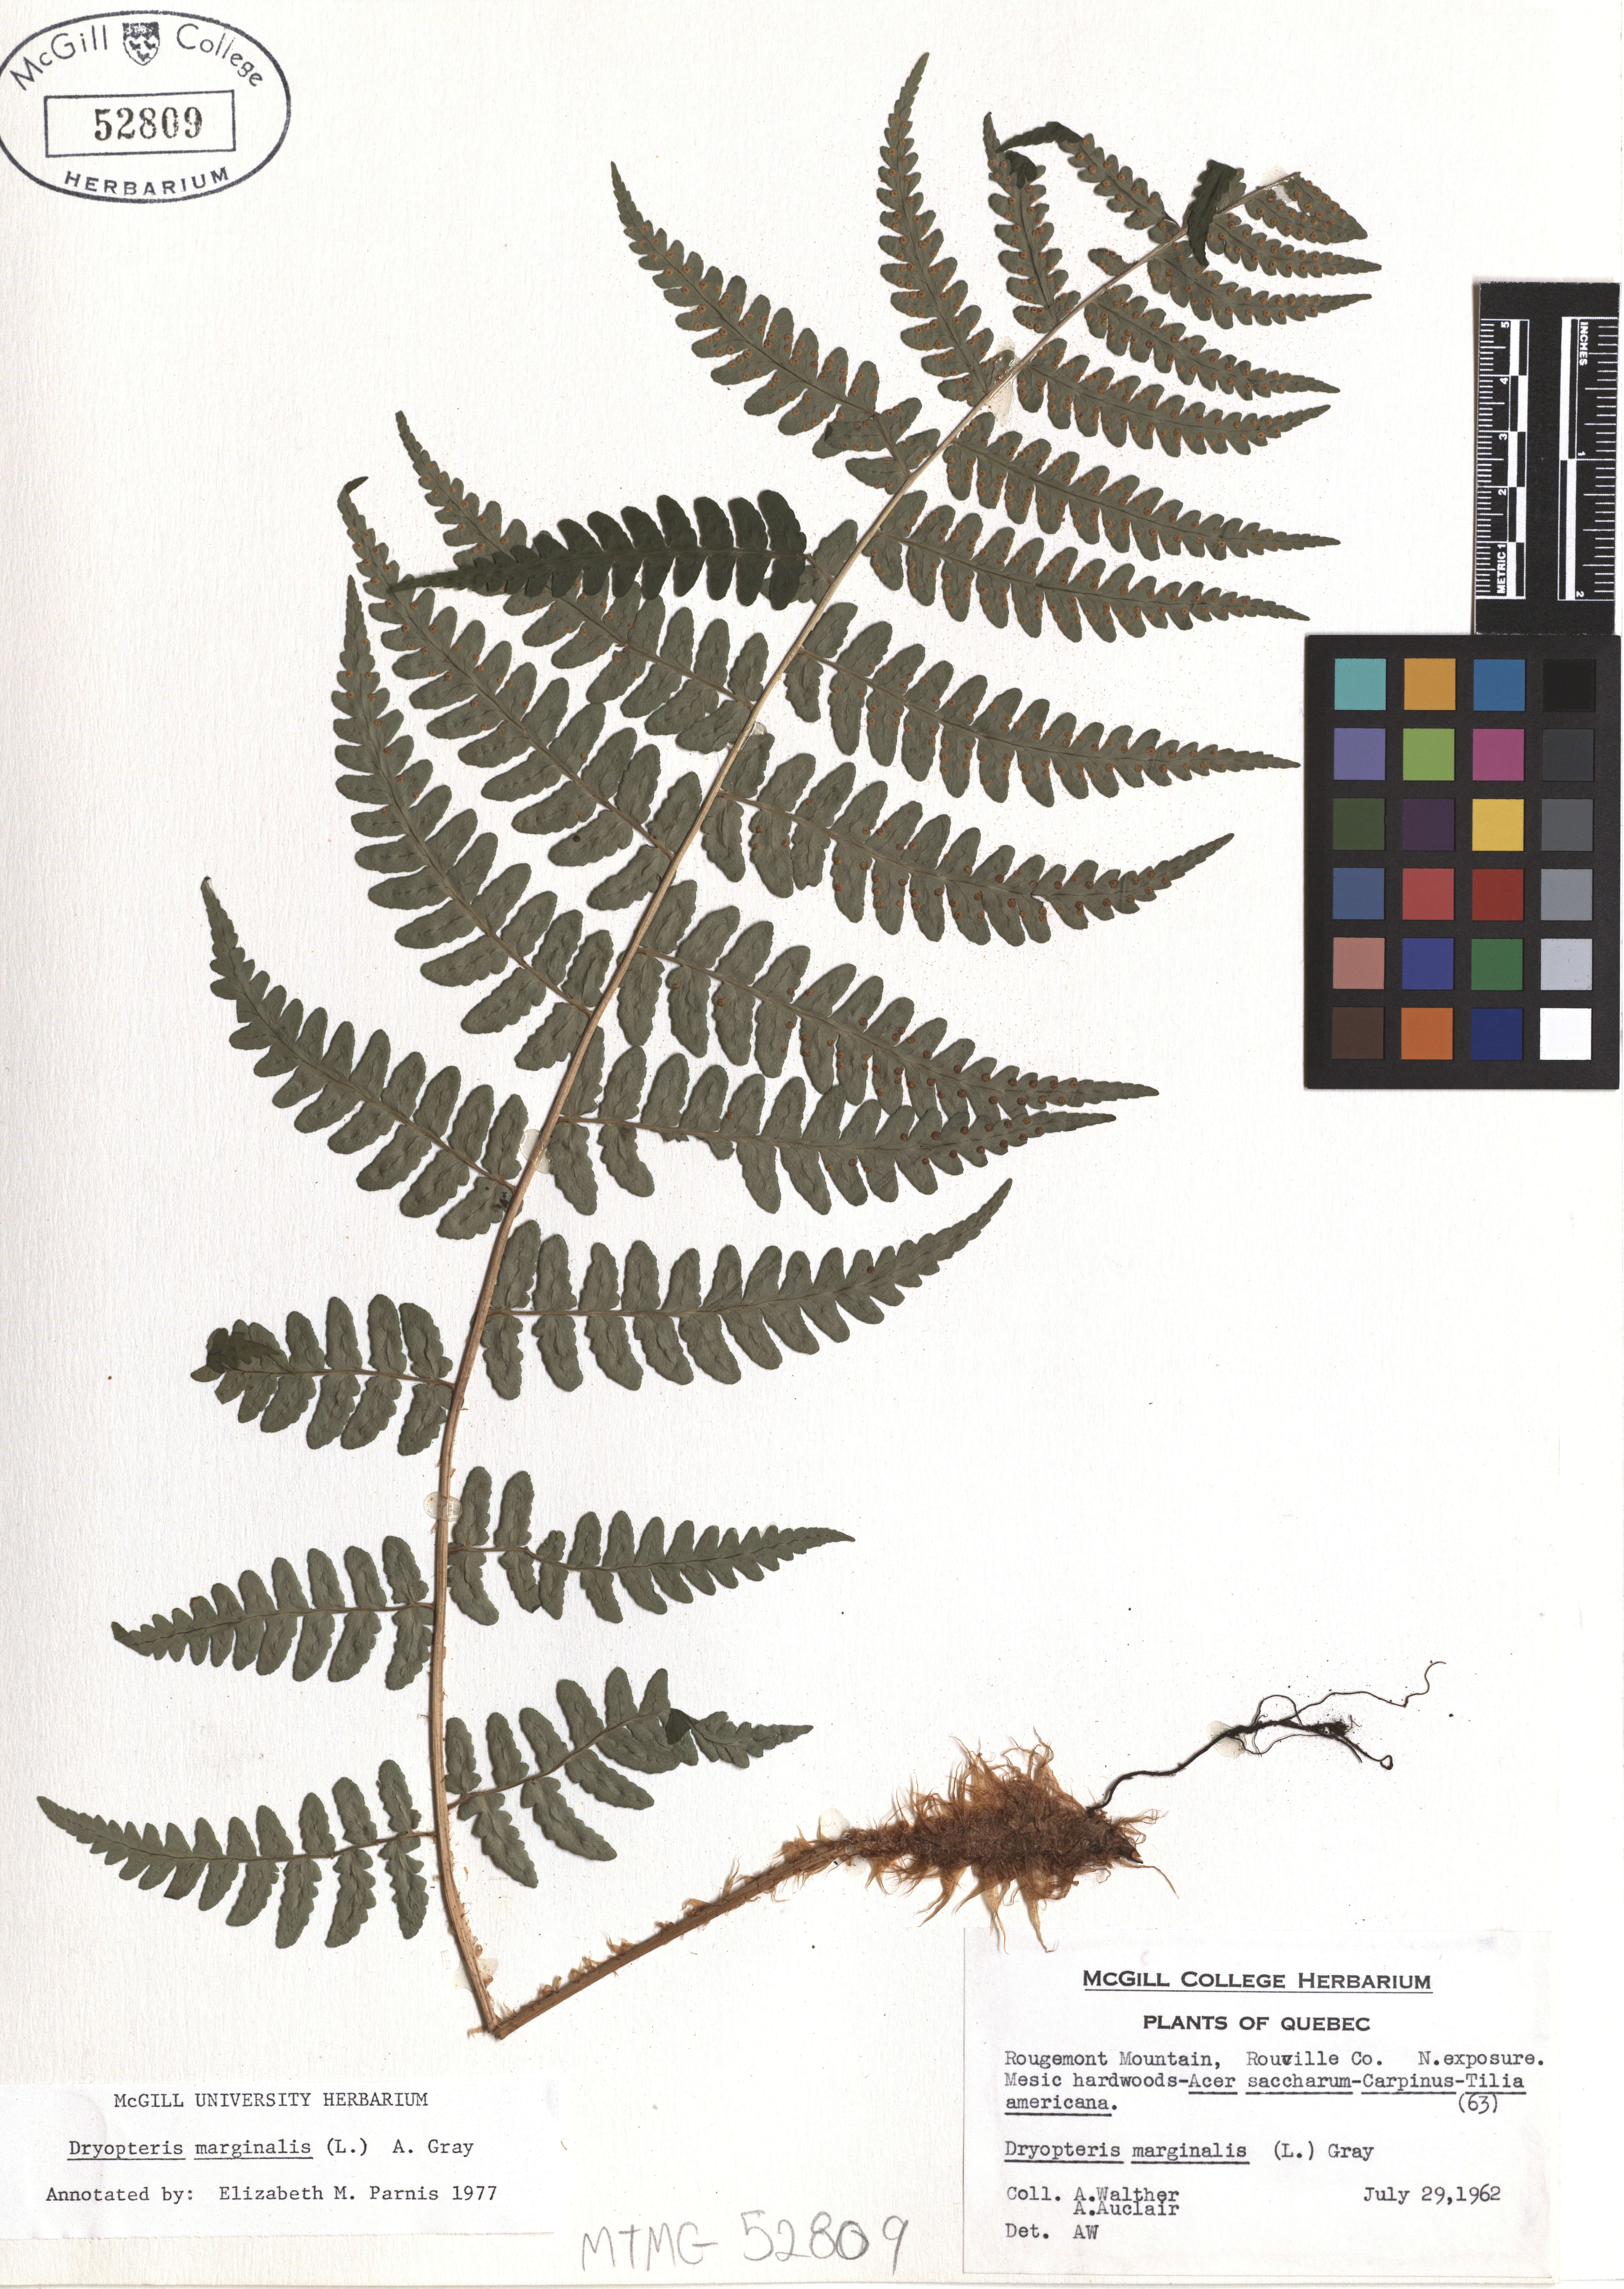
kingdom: Plantae
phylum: Tracheophyta
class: Polypodiopsida
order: Polypodiales
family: Dryopteridaceae
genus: Dryopteris
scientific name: Dryopteris marginalis
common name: Marginal wood fern
